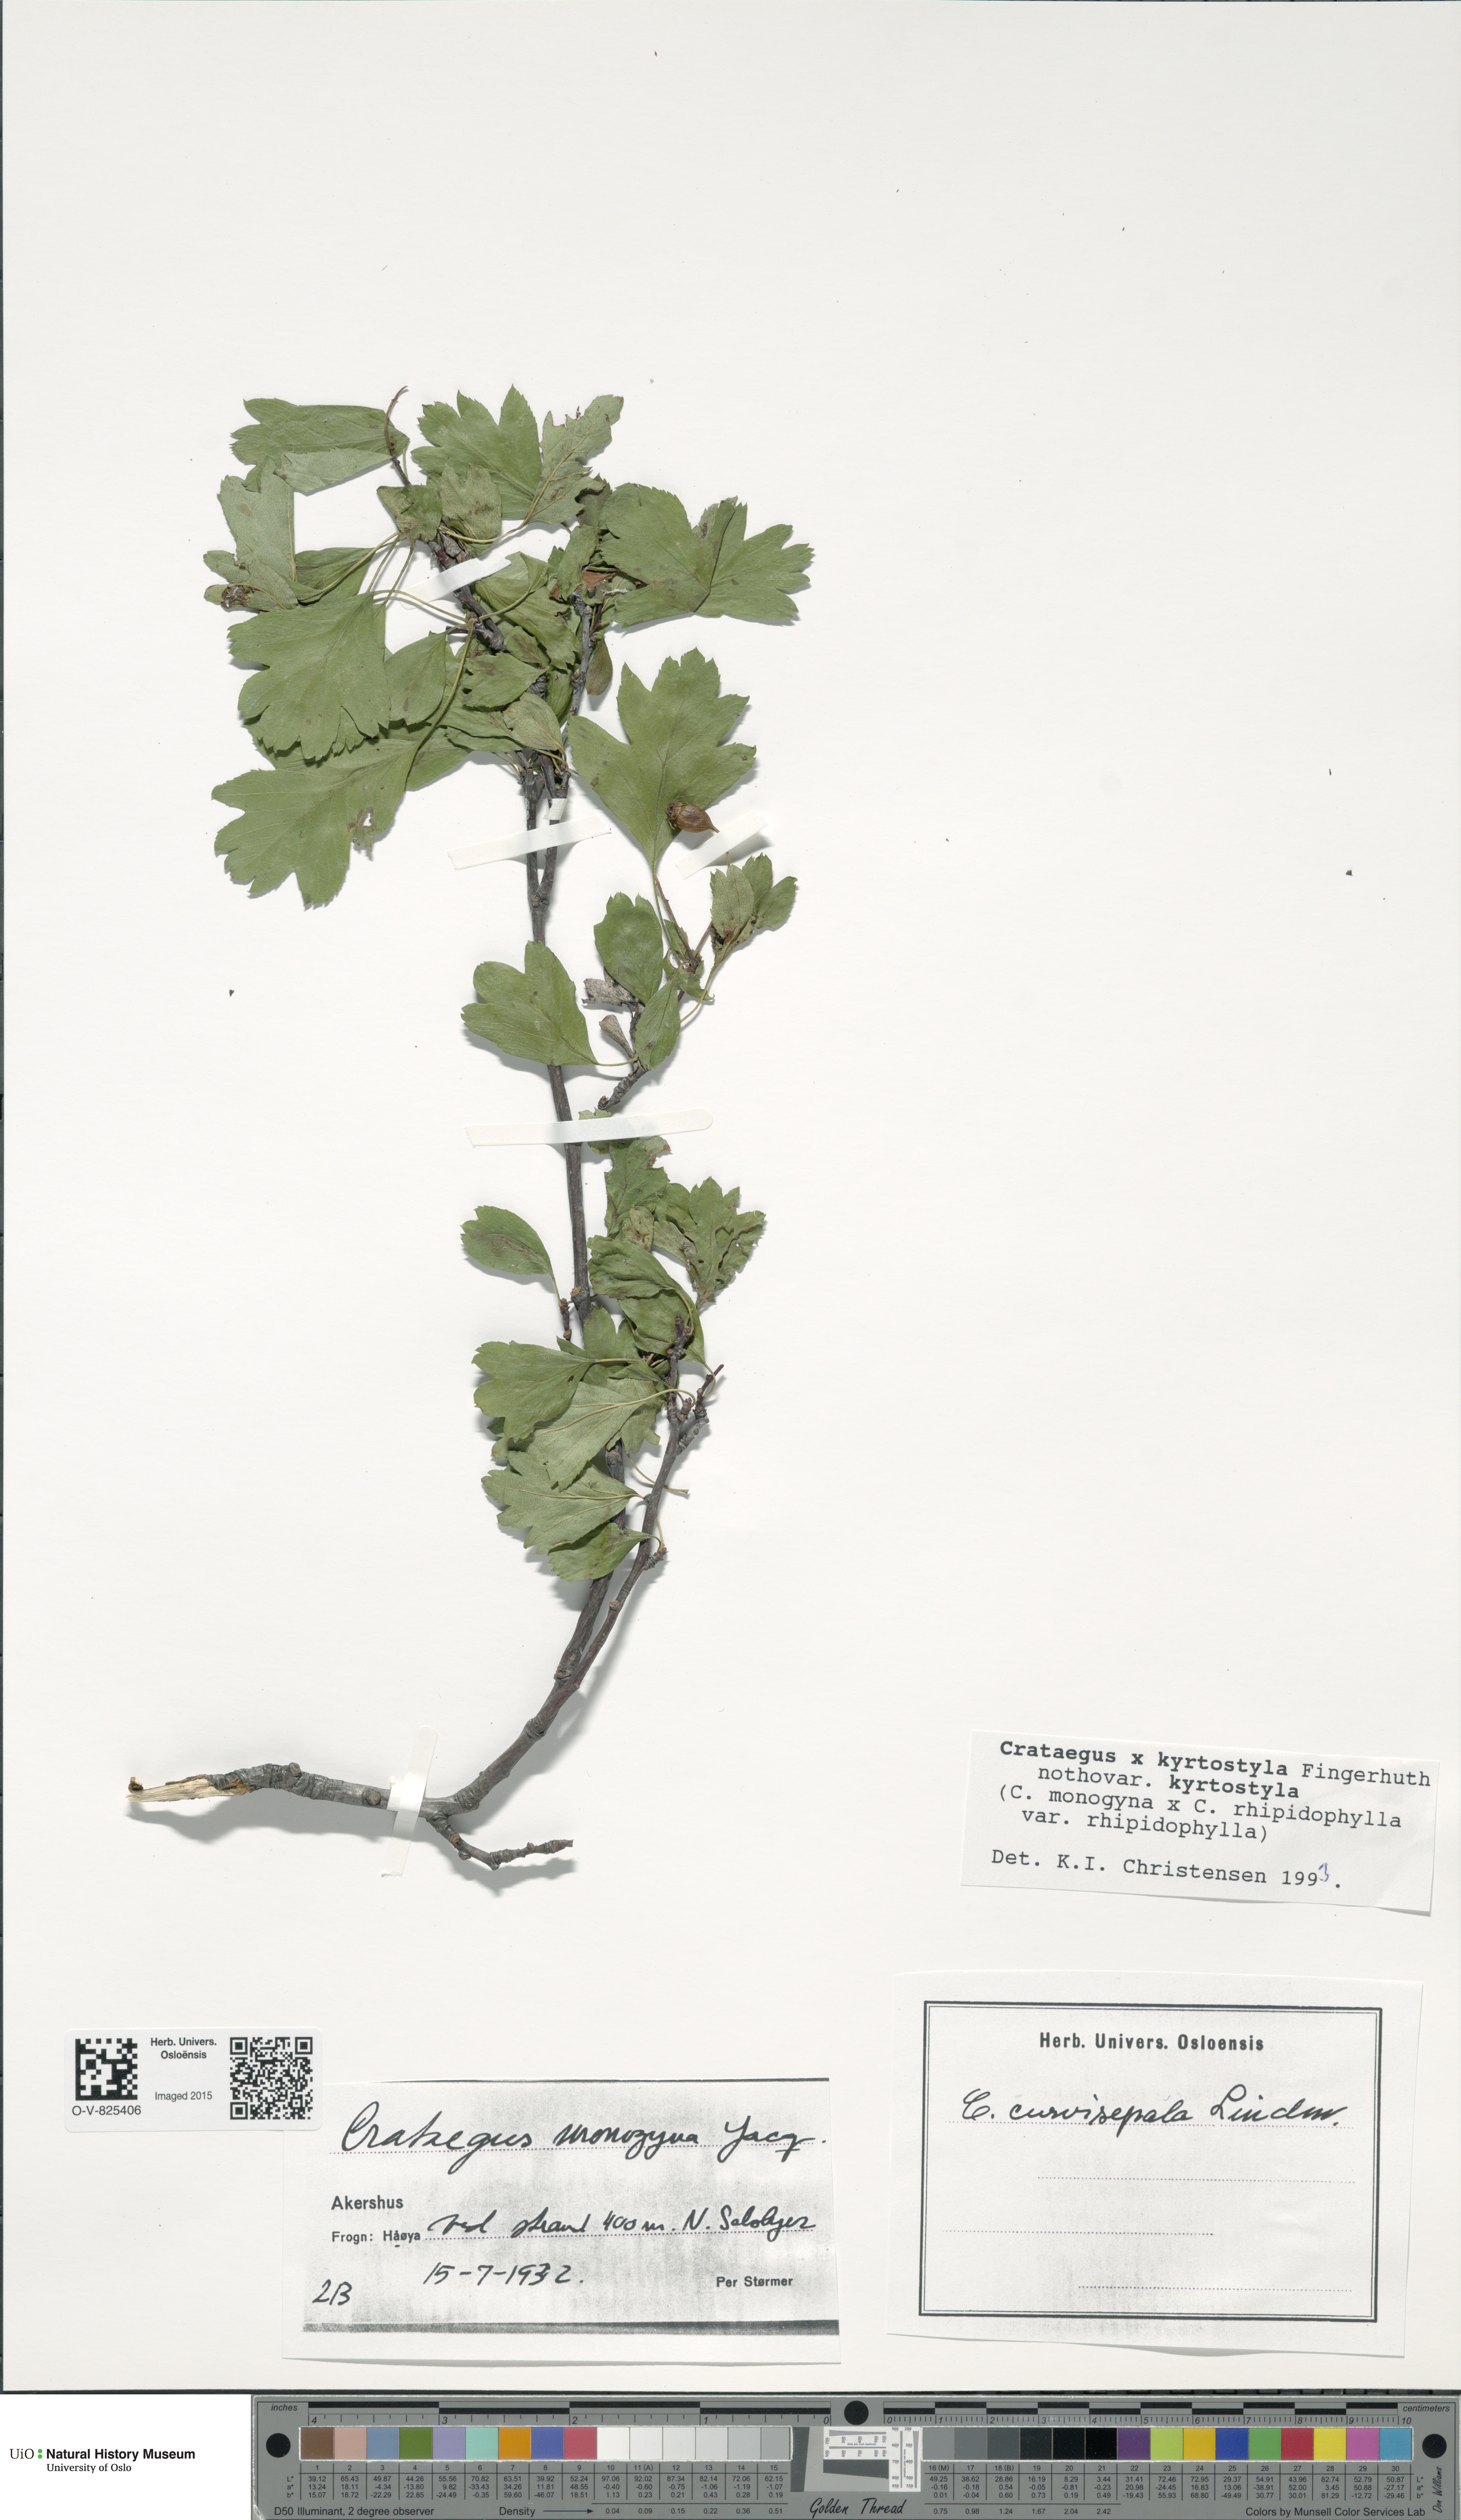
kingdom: Plantae
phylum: Tracheophyta
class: Magnoliopsida
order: Rosales
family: Rosaceae
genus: Crataegus
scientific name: Crataegus kyrtostyla
